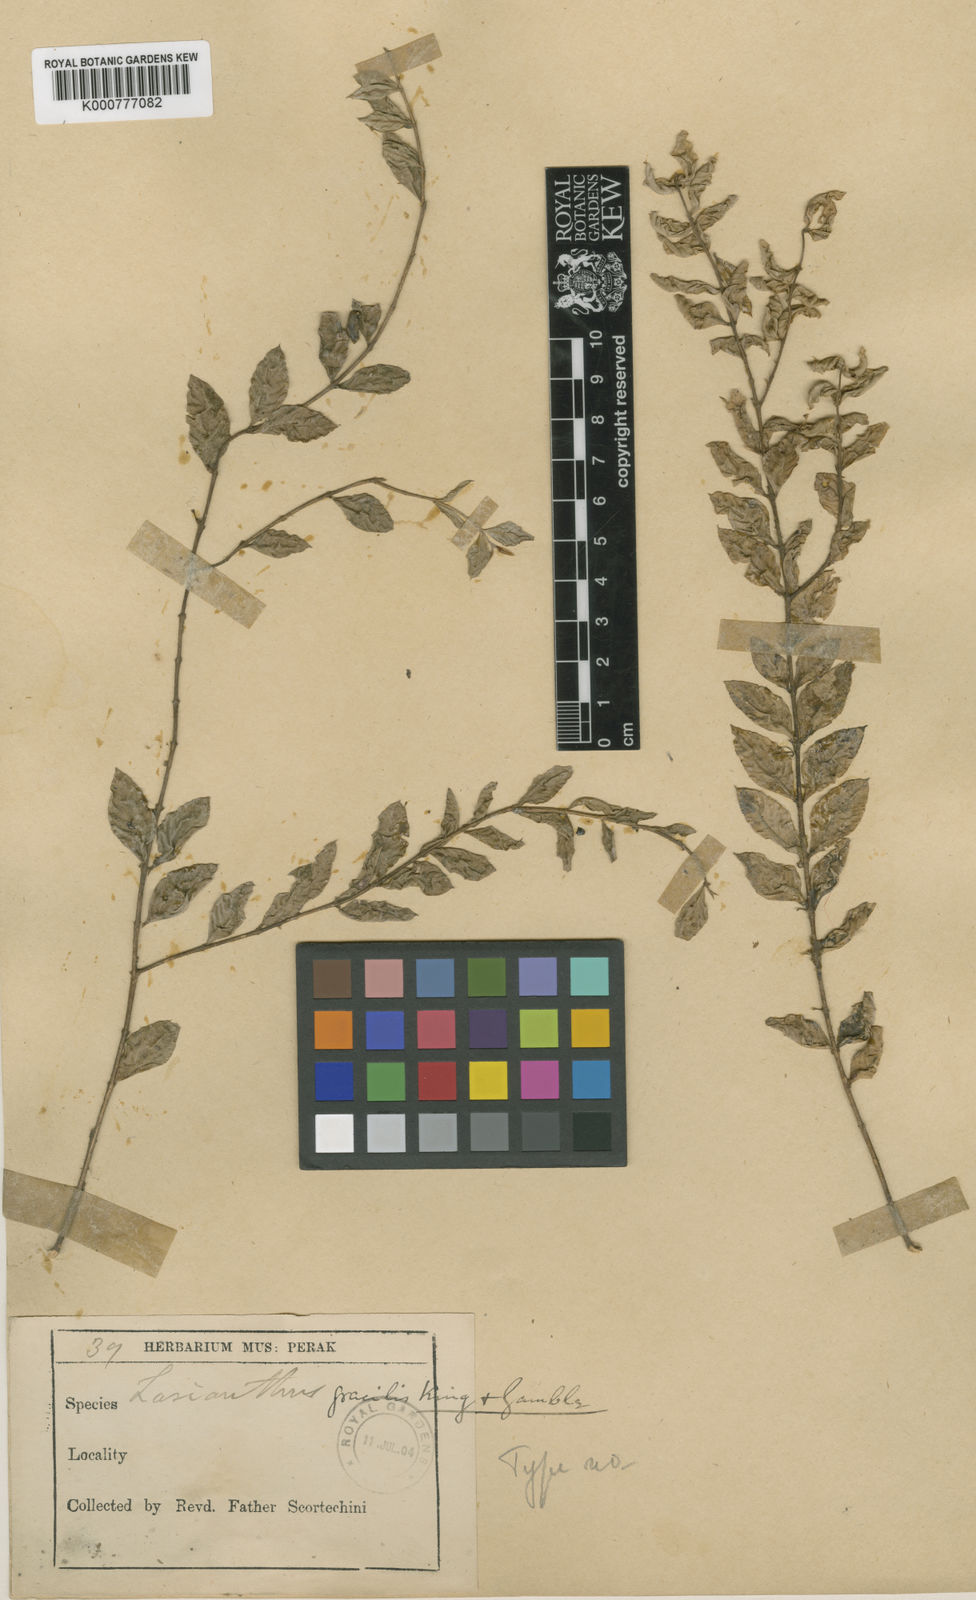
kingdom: Plantae
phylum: Tracheophyta
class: Magnoliopsida
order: Gentianales
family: Rubiaceae
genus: Lasianthus
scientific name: Lasianthus biflorus
